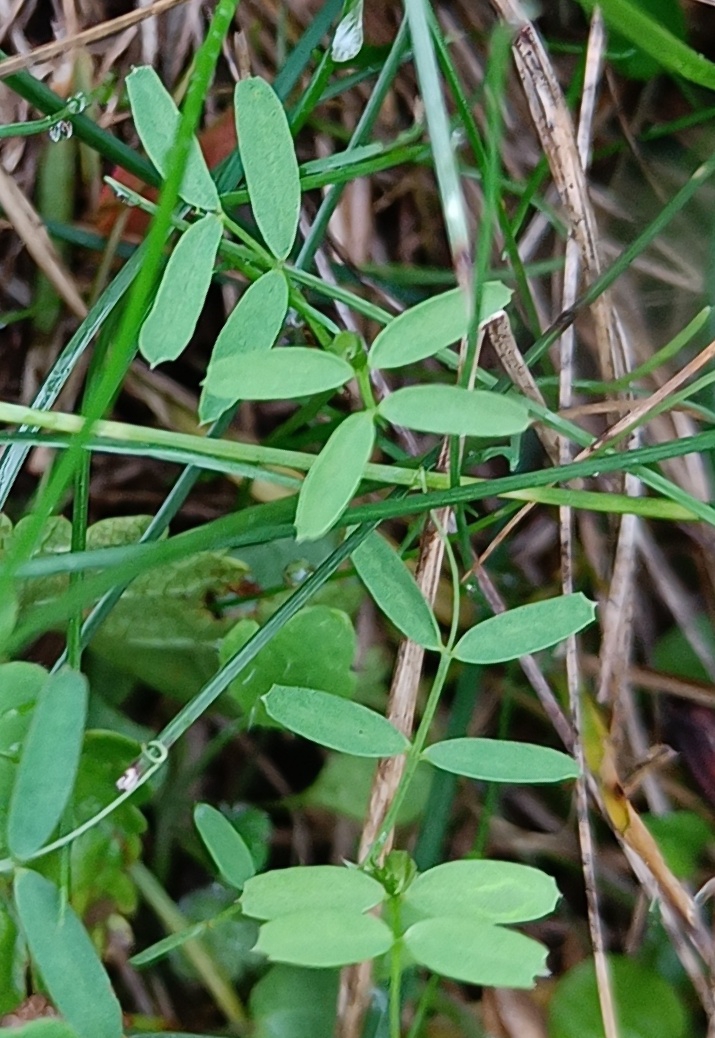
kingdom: Plantae
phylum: Tracheophyta
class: Magnoliopsida
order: Fabales
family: Fabaceae
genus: Vicia
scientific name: Vicia
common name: Vikkeslægten
